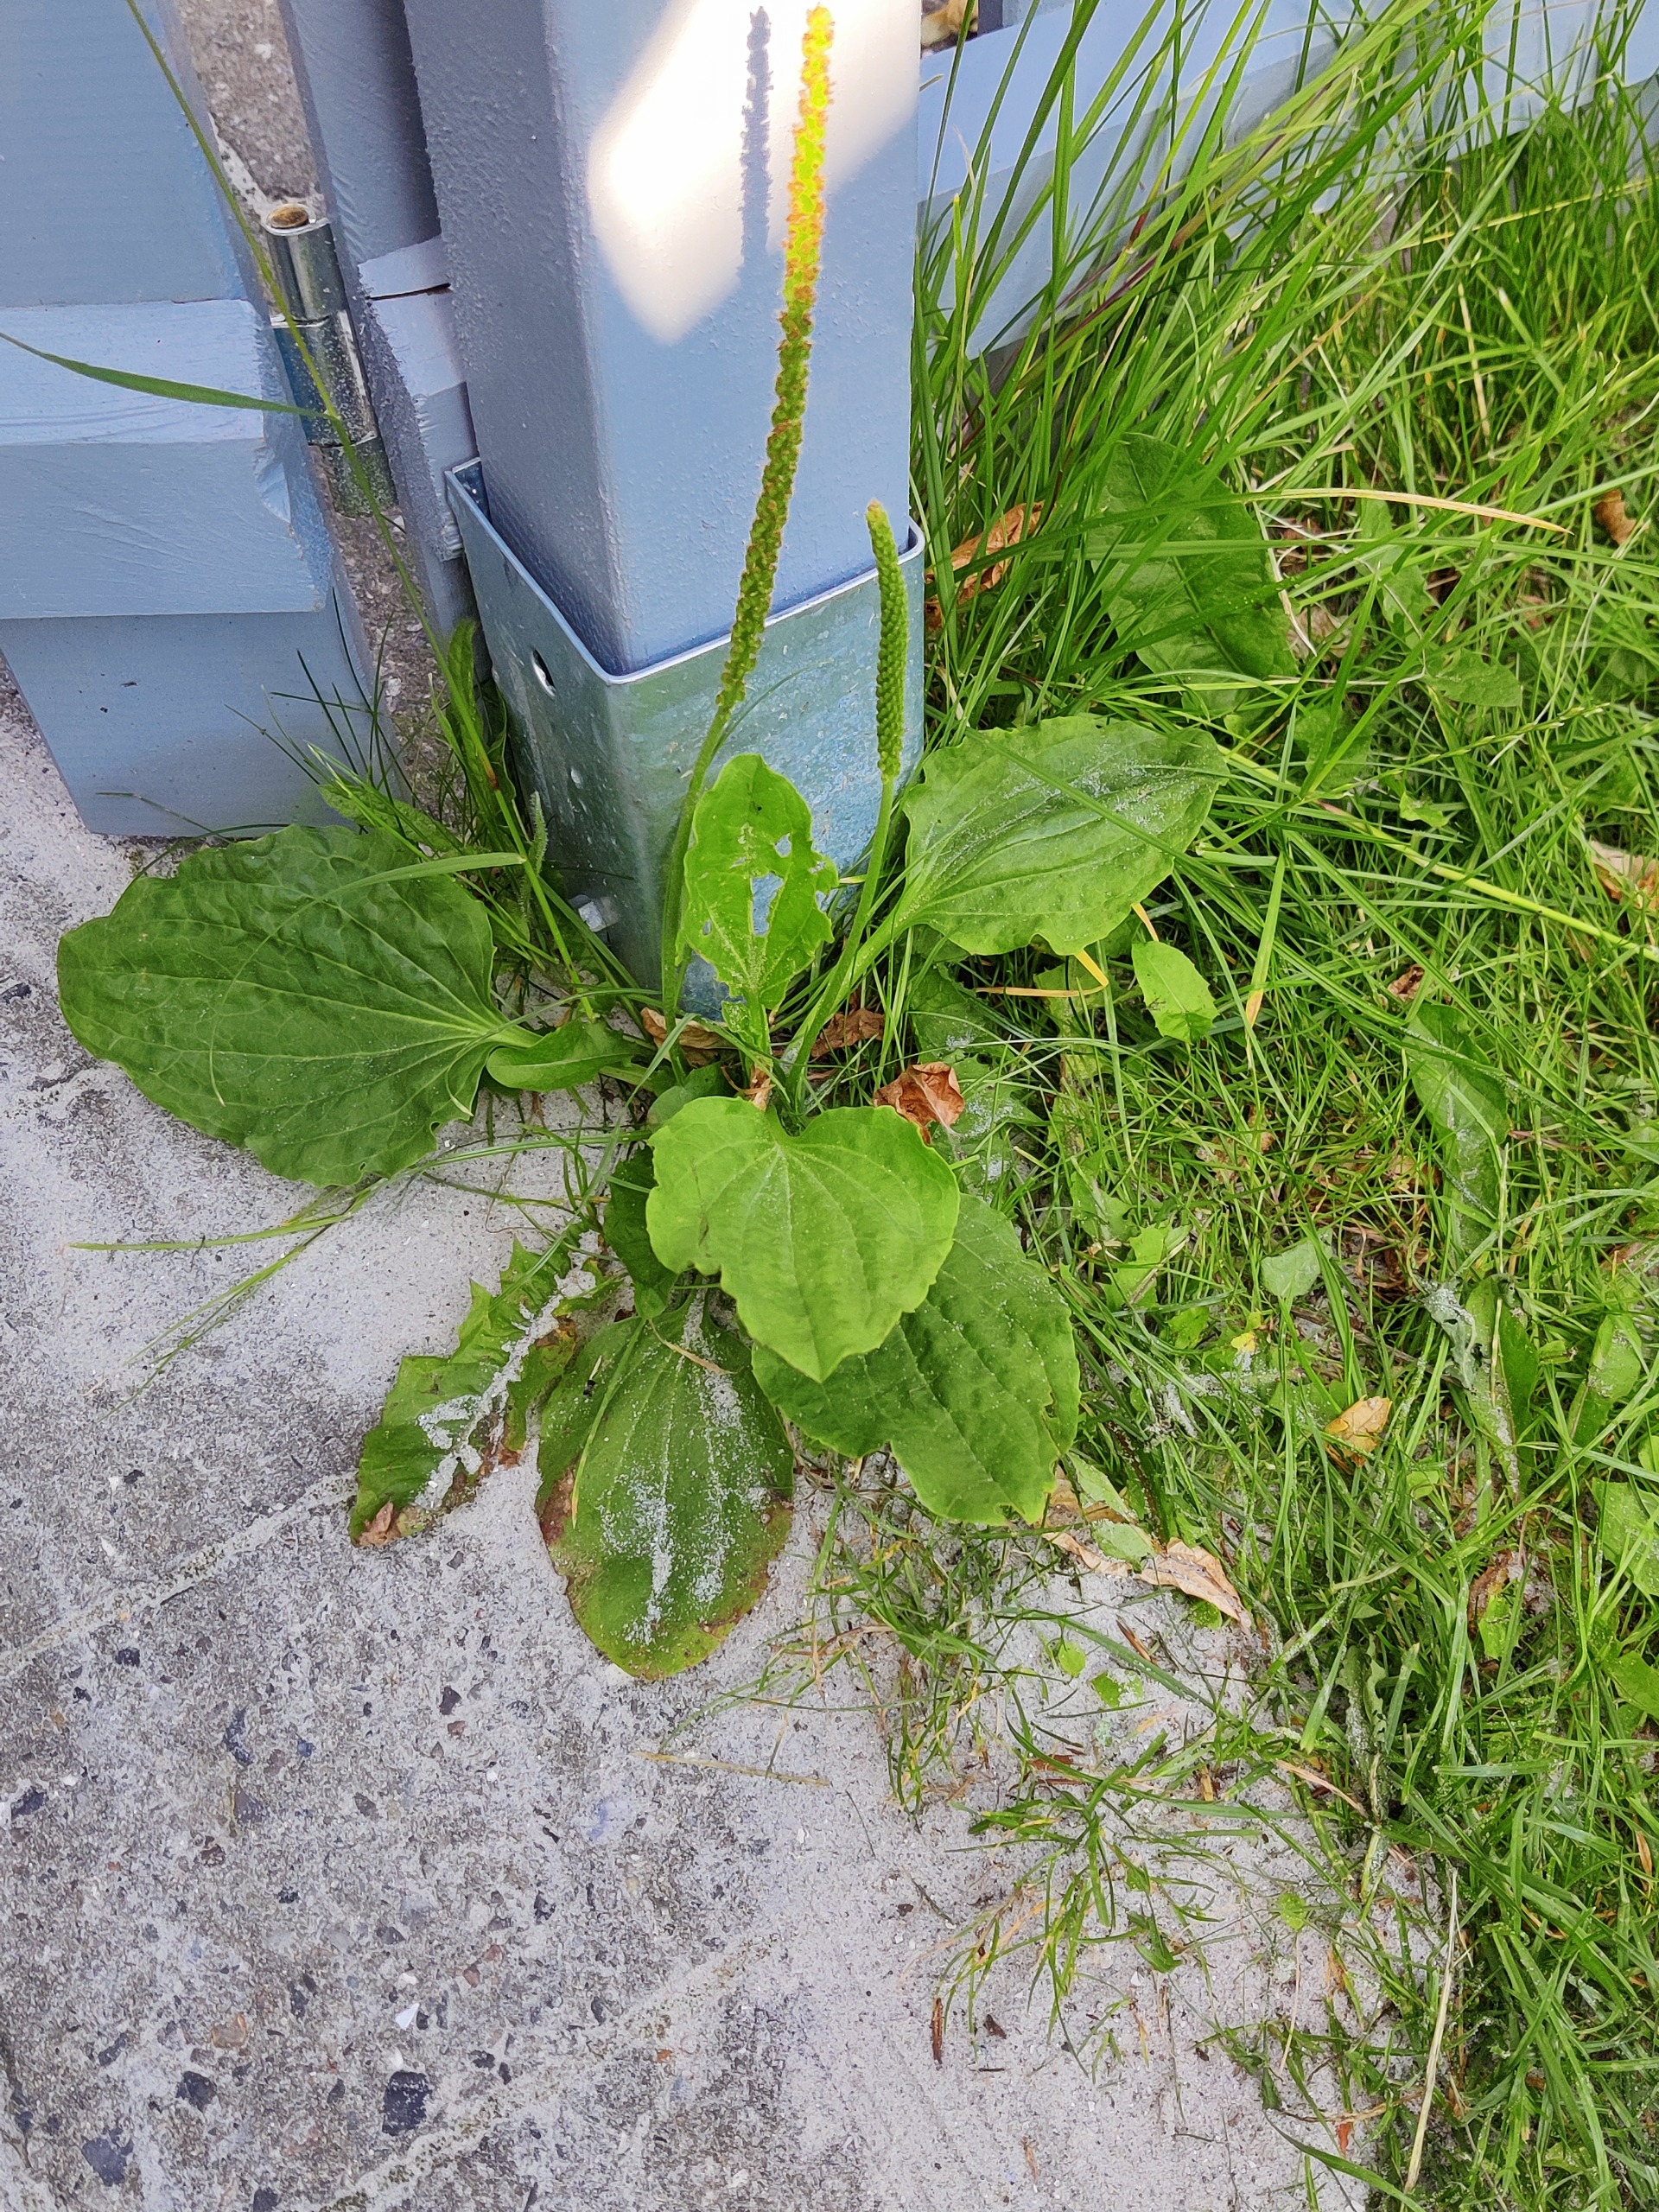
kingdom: Plantae
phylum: Tracheophyta
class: Magnoliopsida
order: Lamiales
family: Plantaginaceae
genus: Plantago
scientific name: Plantago uliginosa
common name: Ager-vejbred
